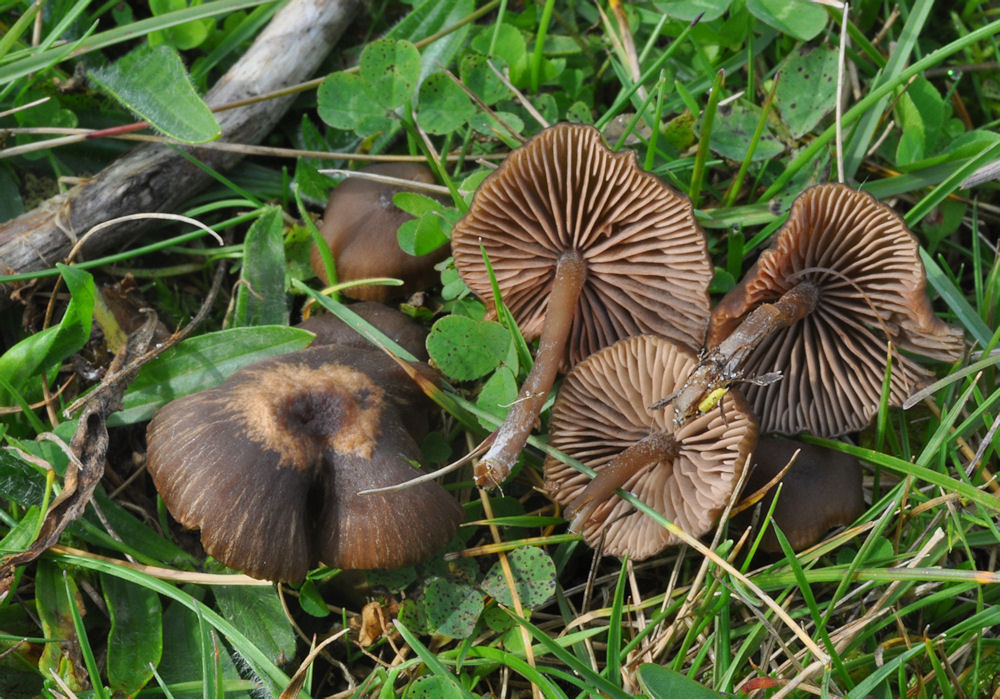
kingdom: Fungi
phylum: Basidiomycota
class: Agaricomycetes
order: Agaricales
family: Entolomataceae
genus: Entoloma
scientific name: Entoloma clandestinum
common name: tykbladet rødblad
